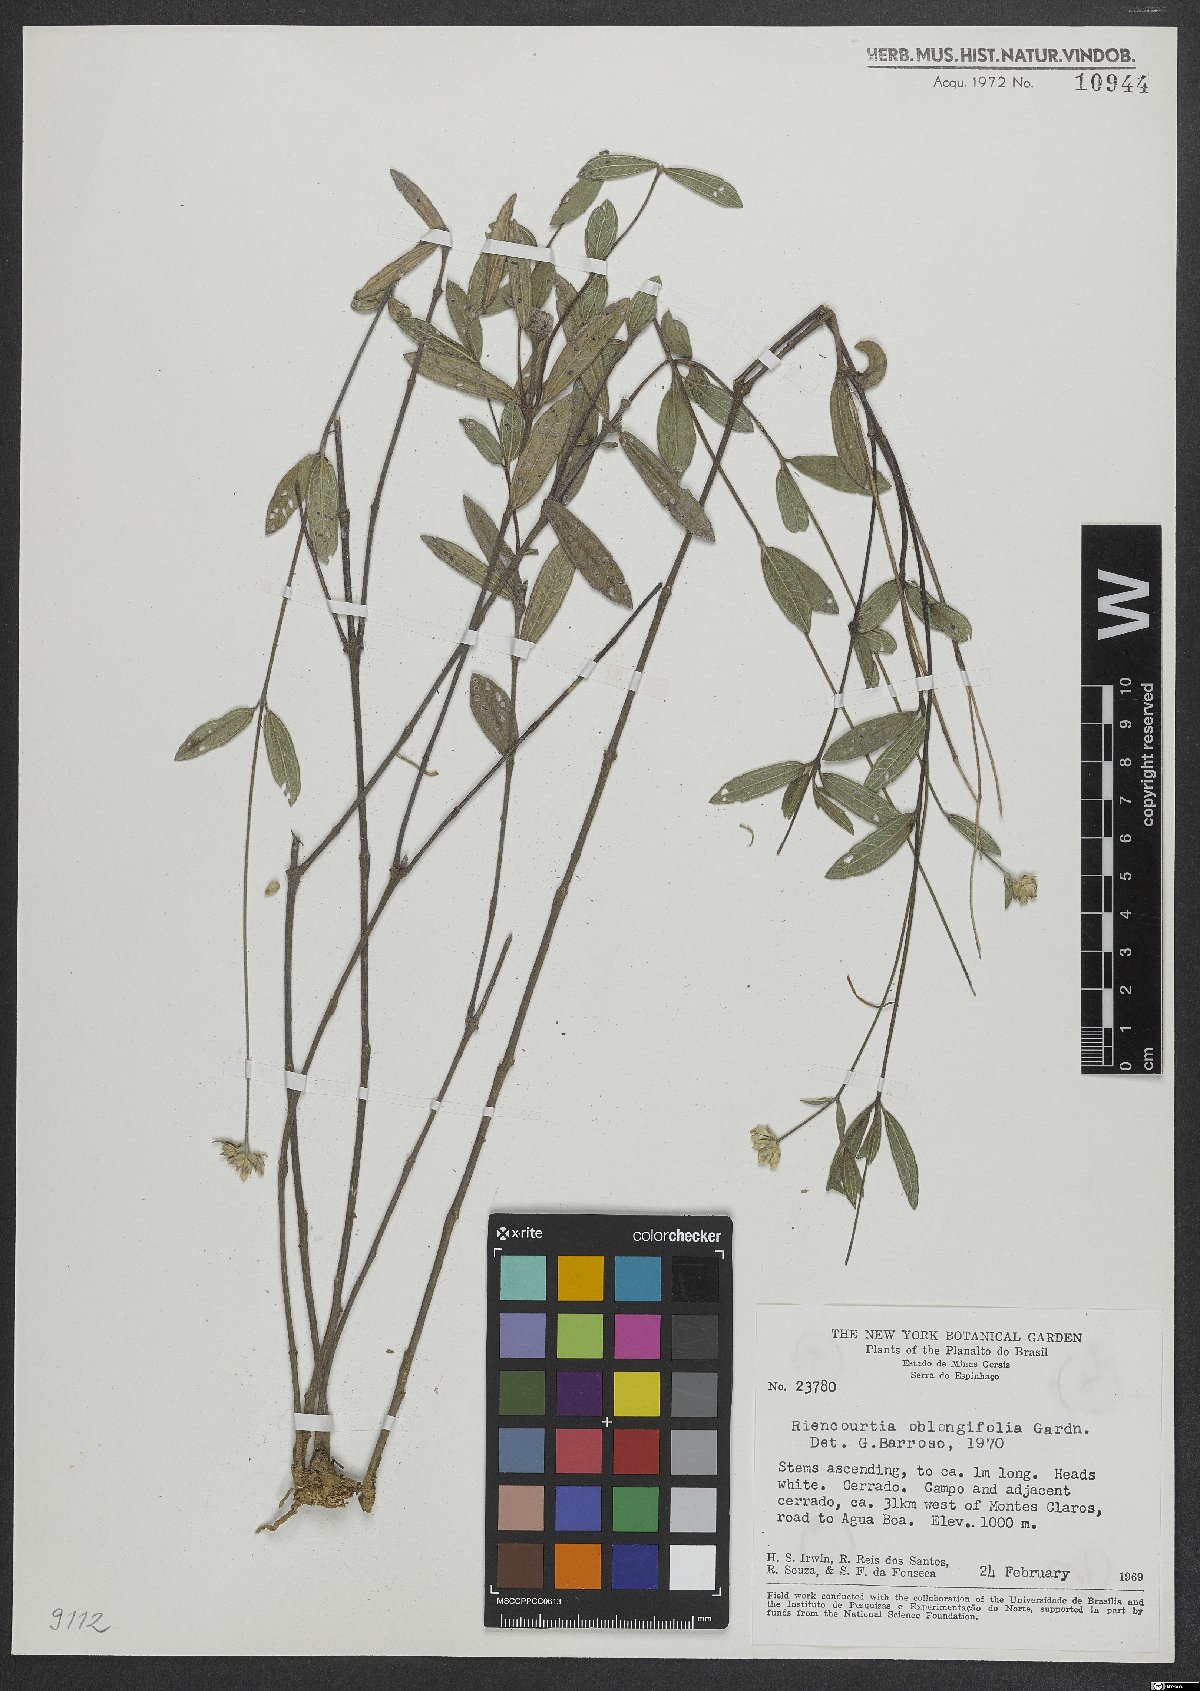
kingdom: Plantae
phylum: Tracheophyta
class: Magnoliopsida
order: Asterales
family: Asteraceae
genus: Riencourtia
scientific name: Riencourtia oblongifolia
